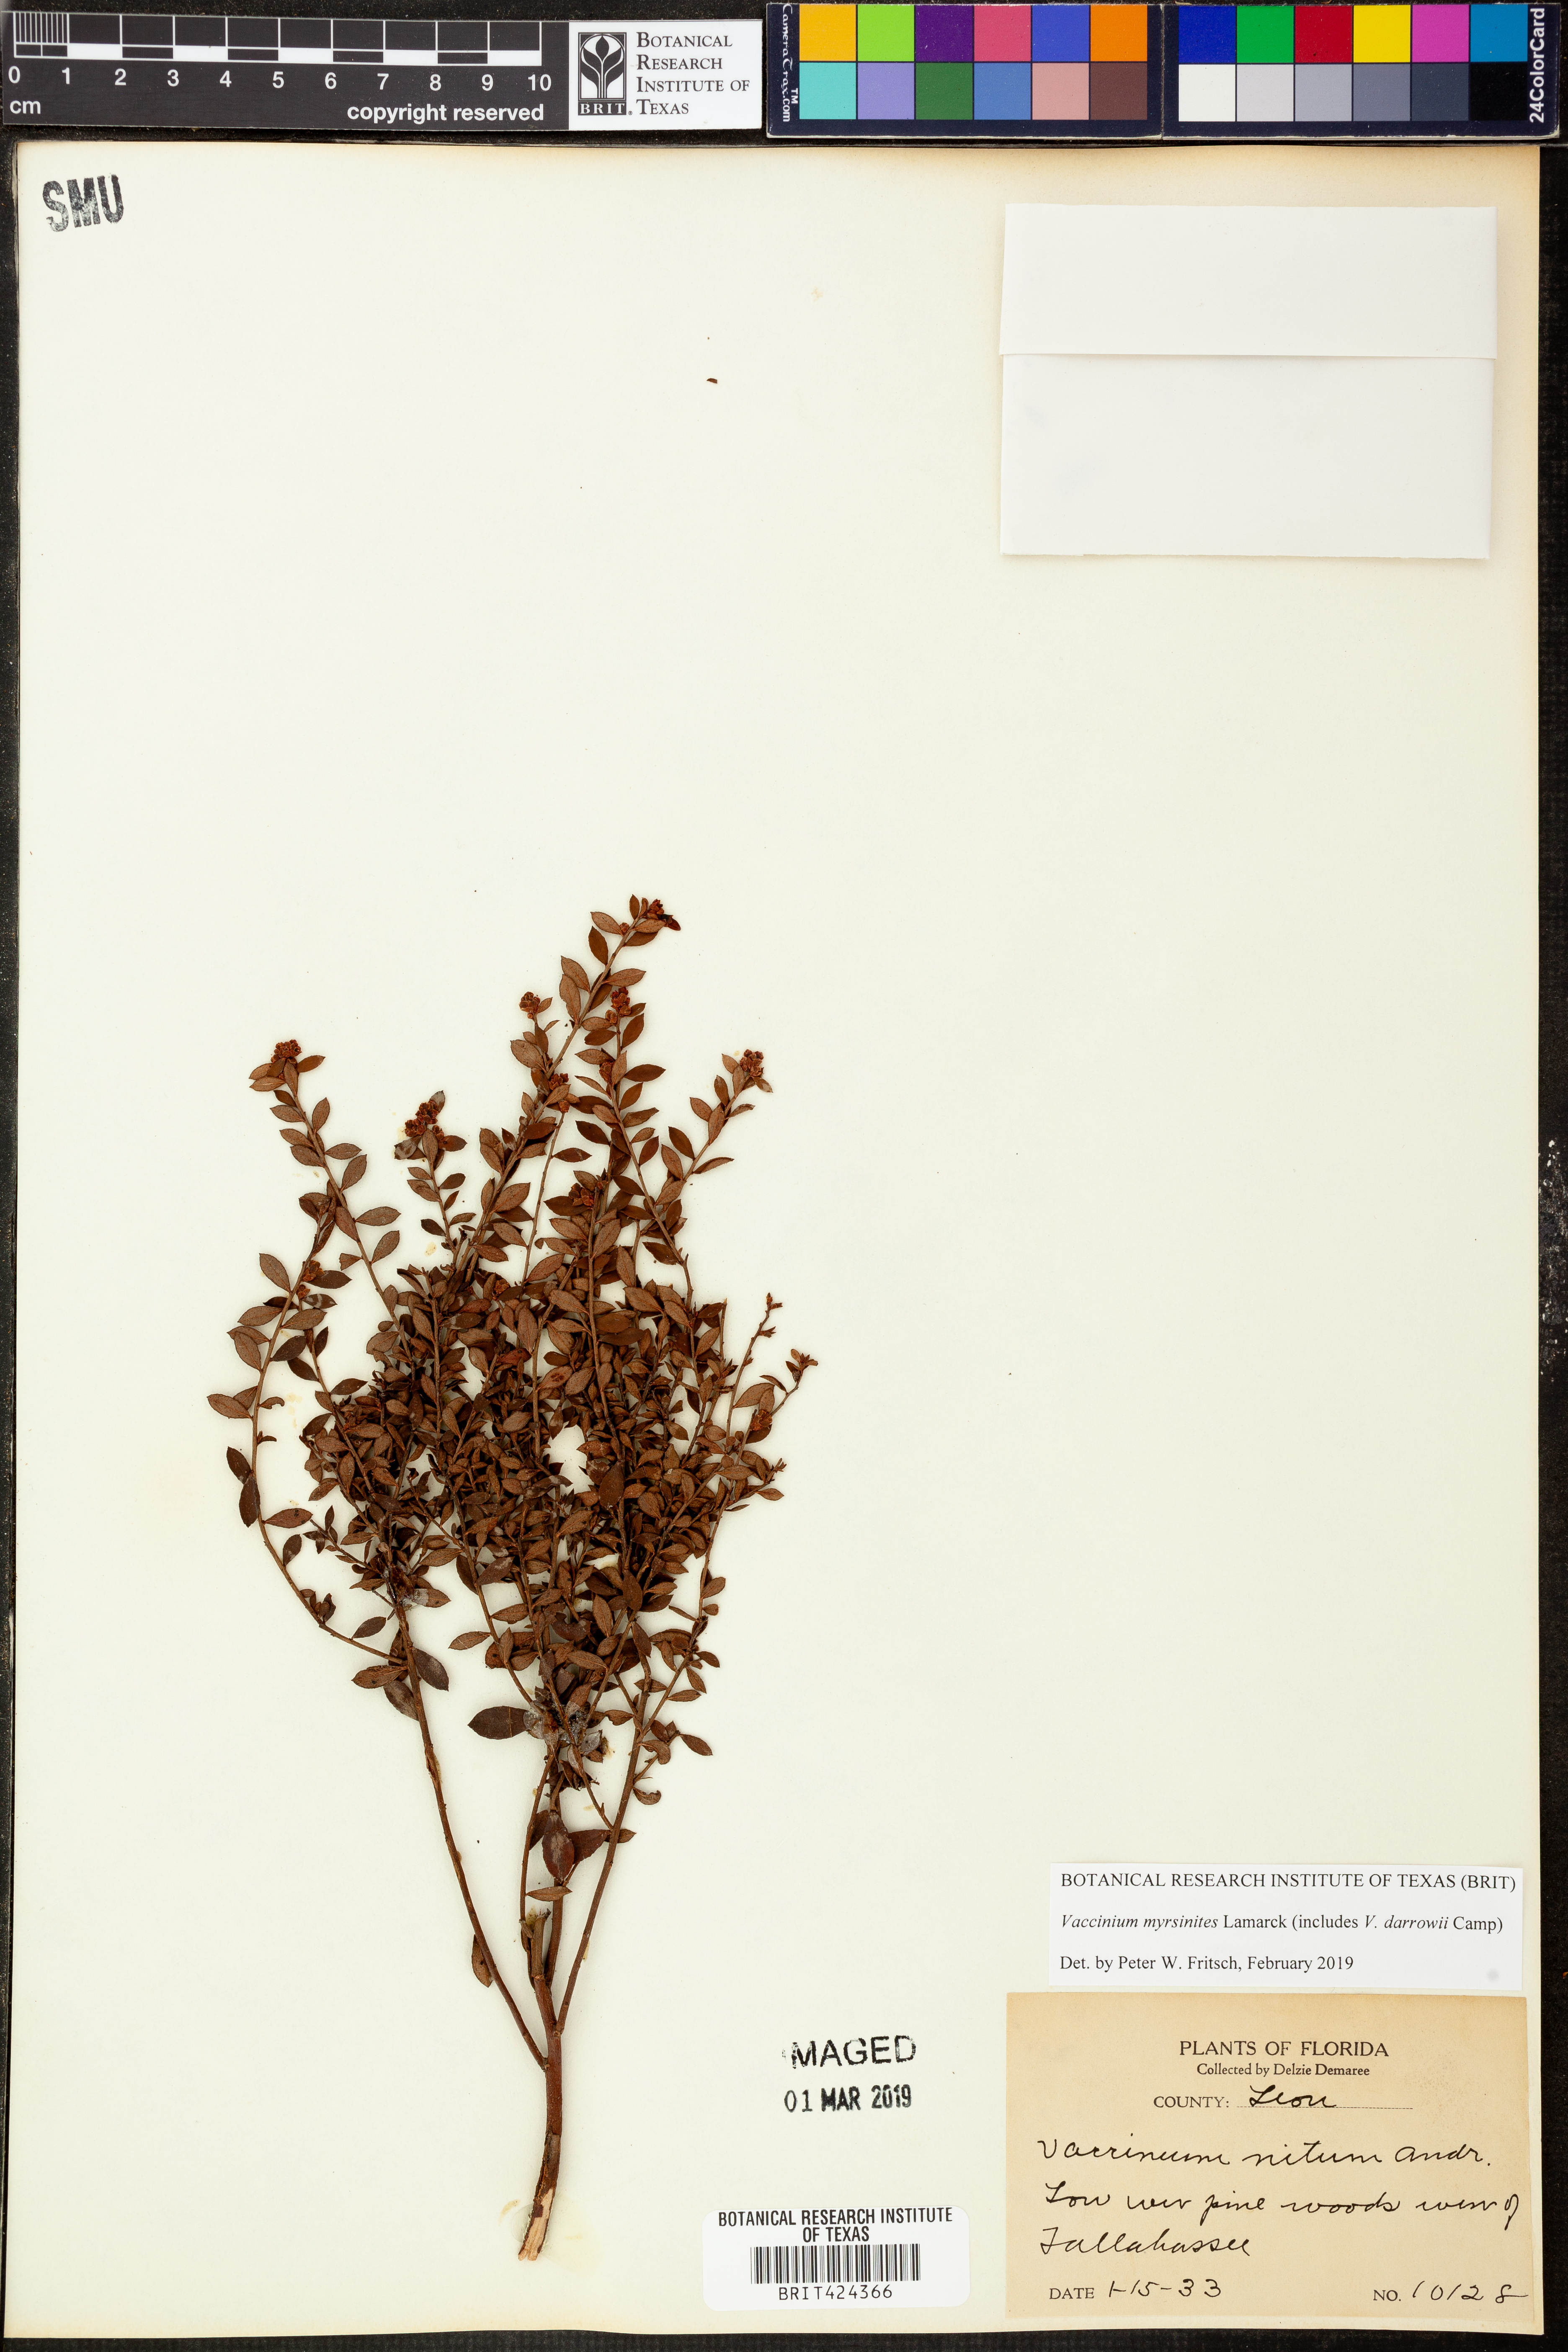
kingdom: Plantae
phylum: Tracheophyta
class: Magnoliopsida
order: Ericales
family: Ericaceae
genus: Vaccinium
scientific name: Vaccinium myrsinites
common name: Evergreen blueberry
